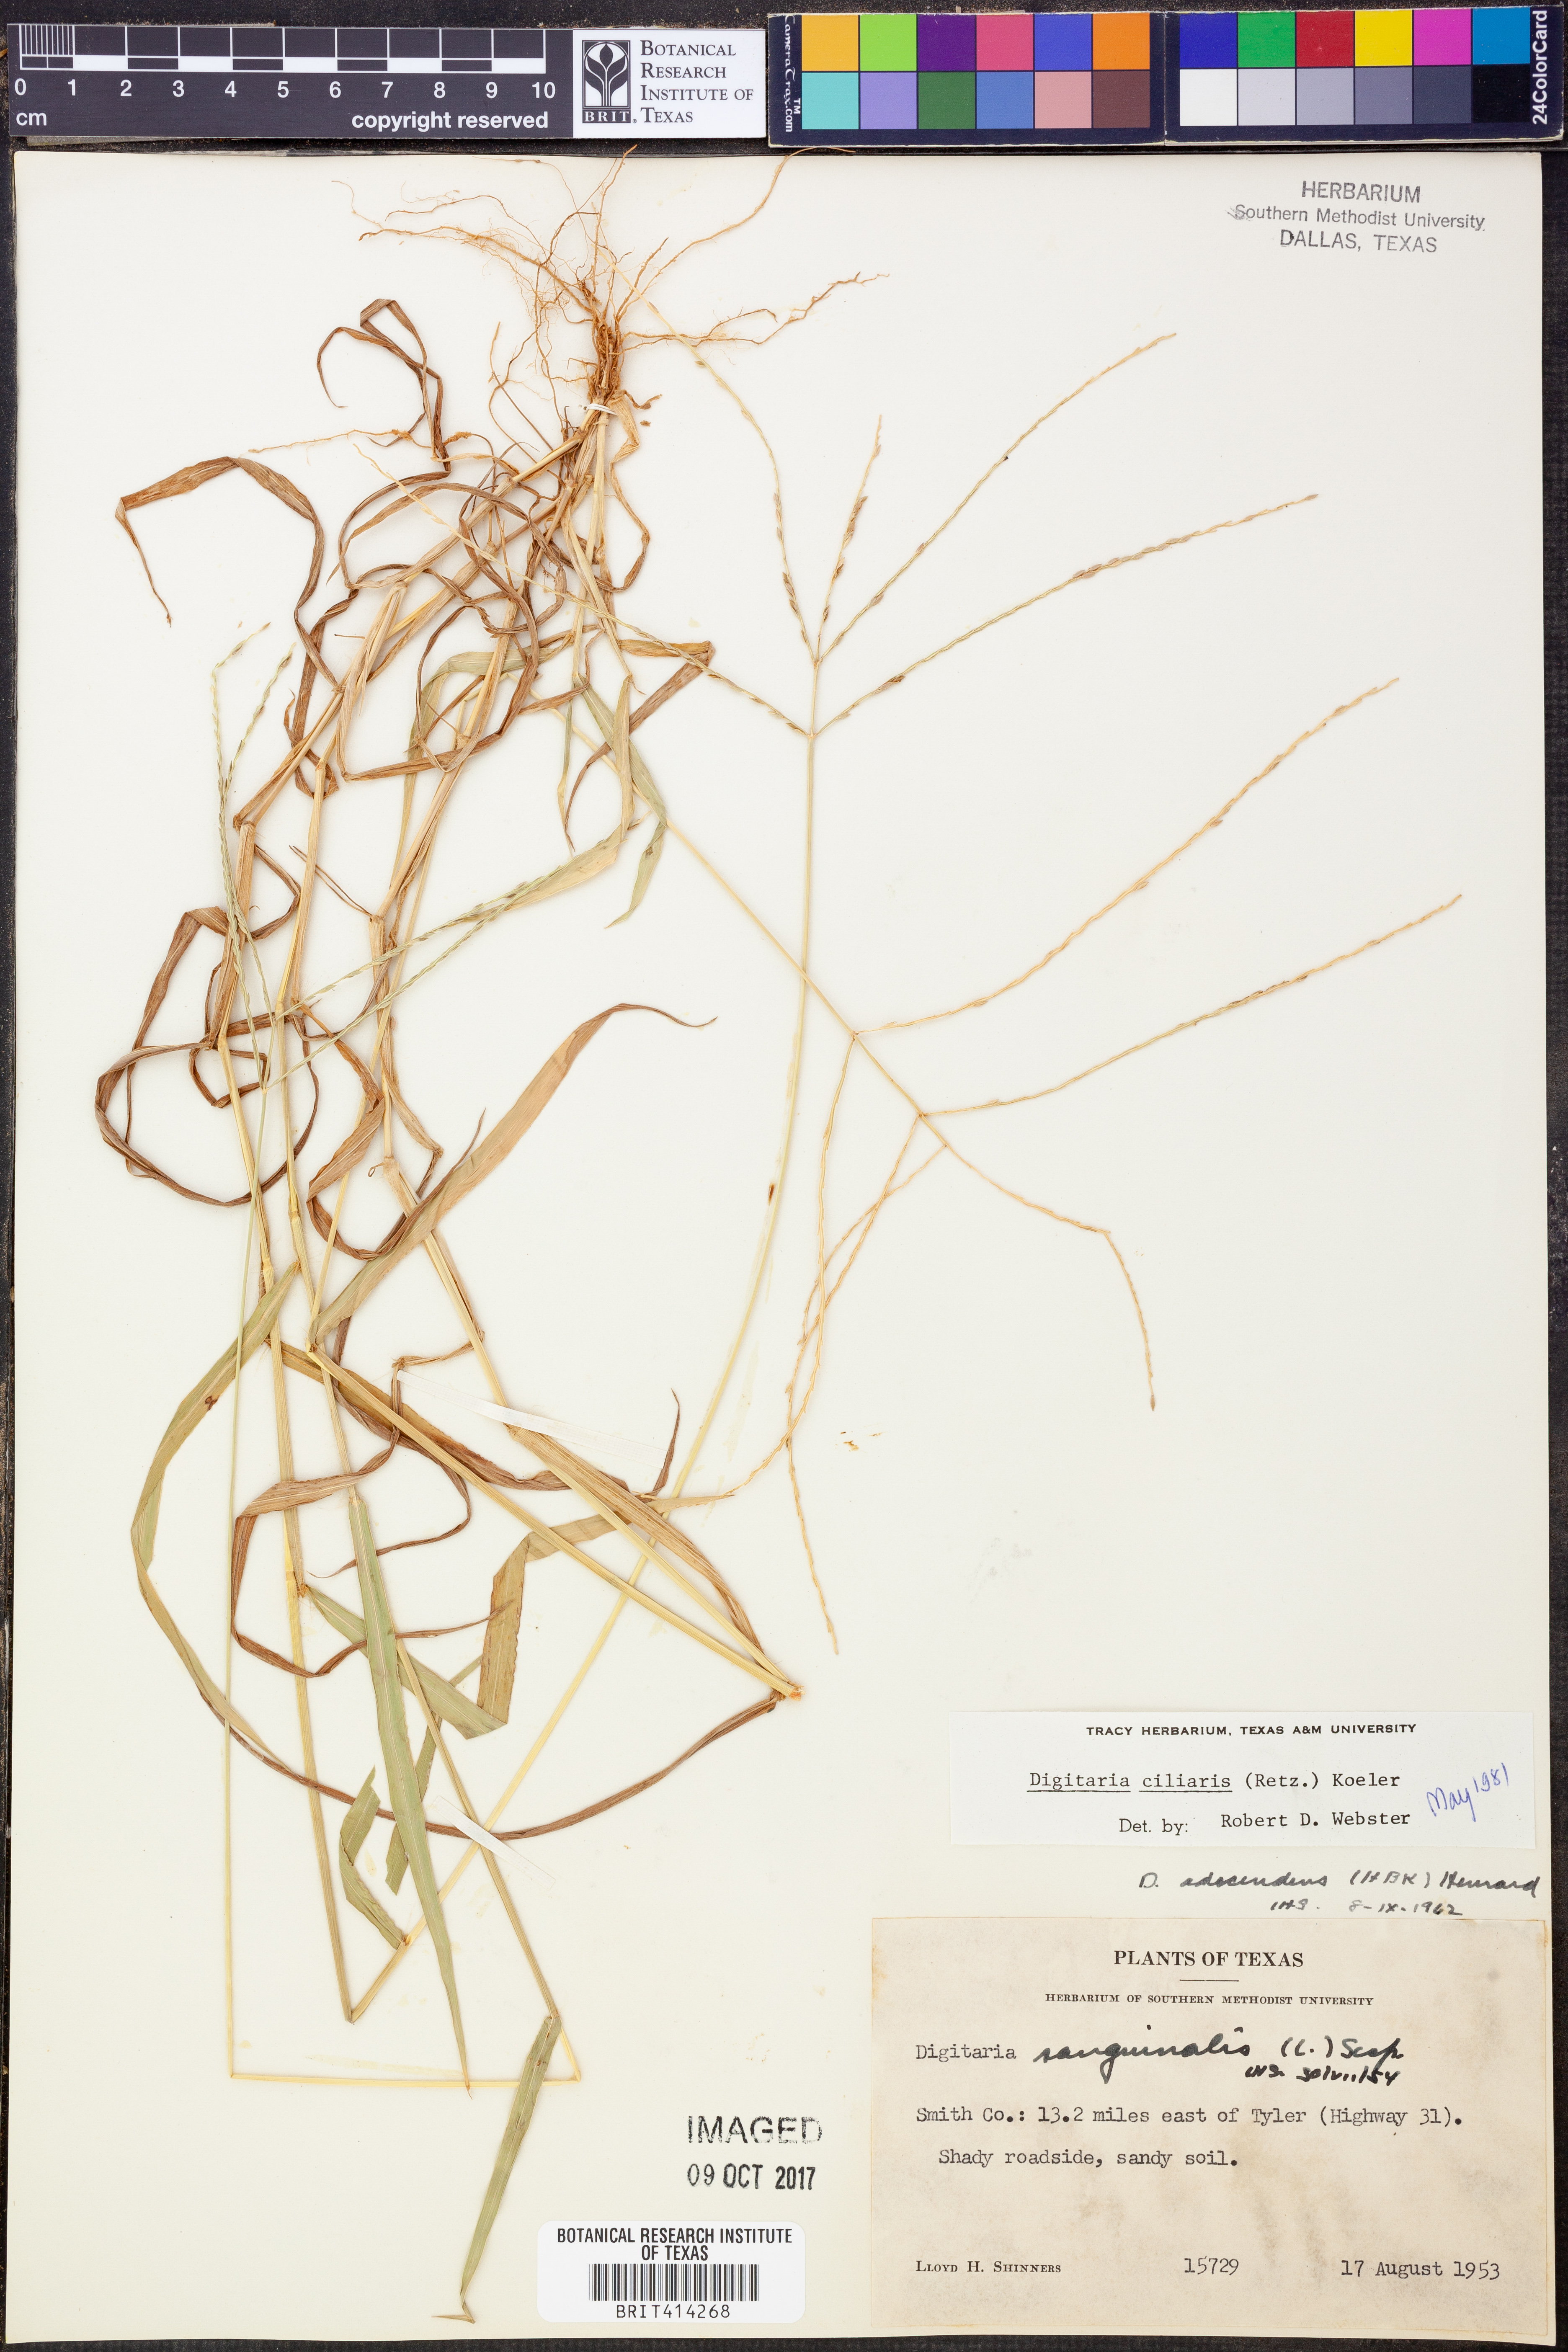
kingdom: Plantae
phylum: Tracheophyta
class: Liliopsida
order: Poales
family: Poaceae
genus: Digitaria
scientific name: Digitaria ciliaris
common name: Tropical finger-grass
